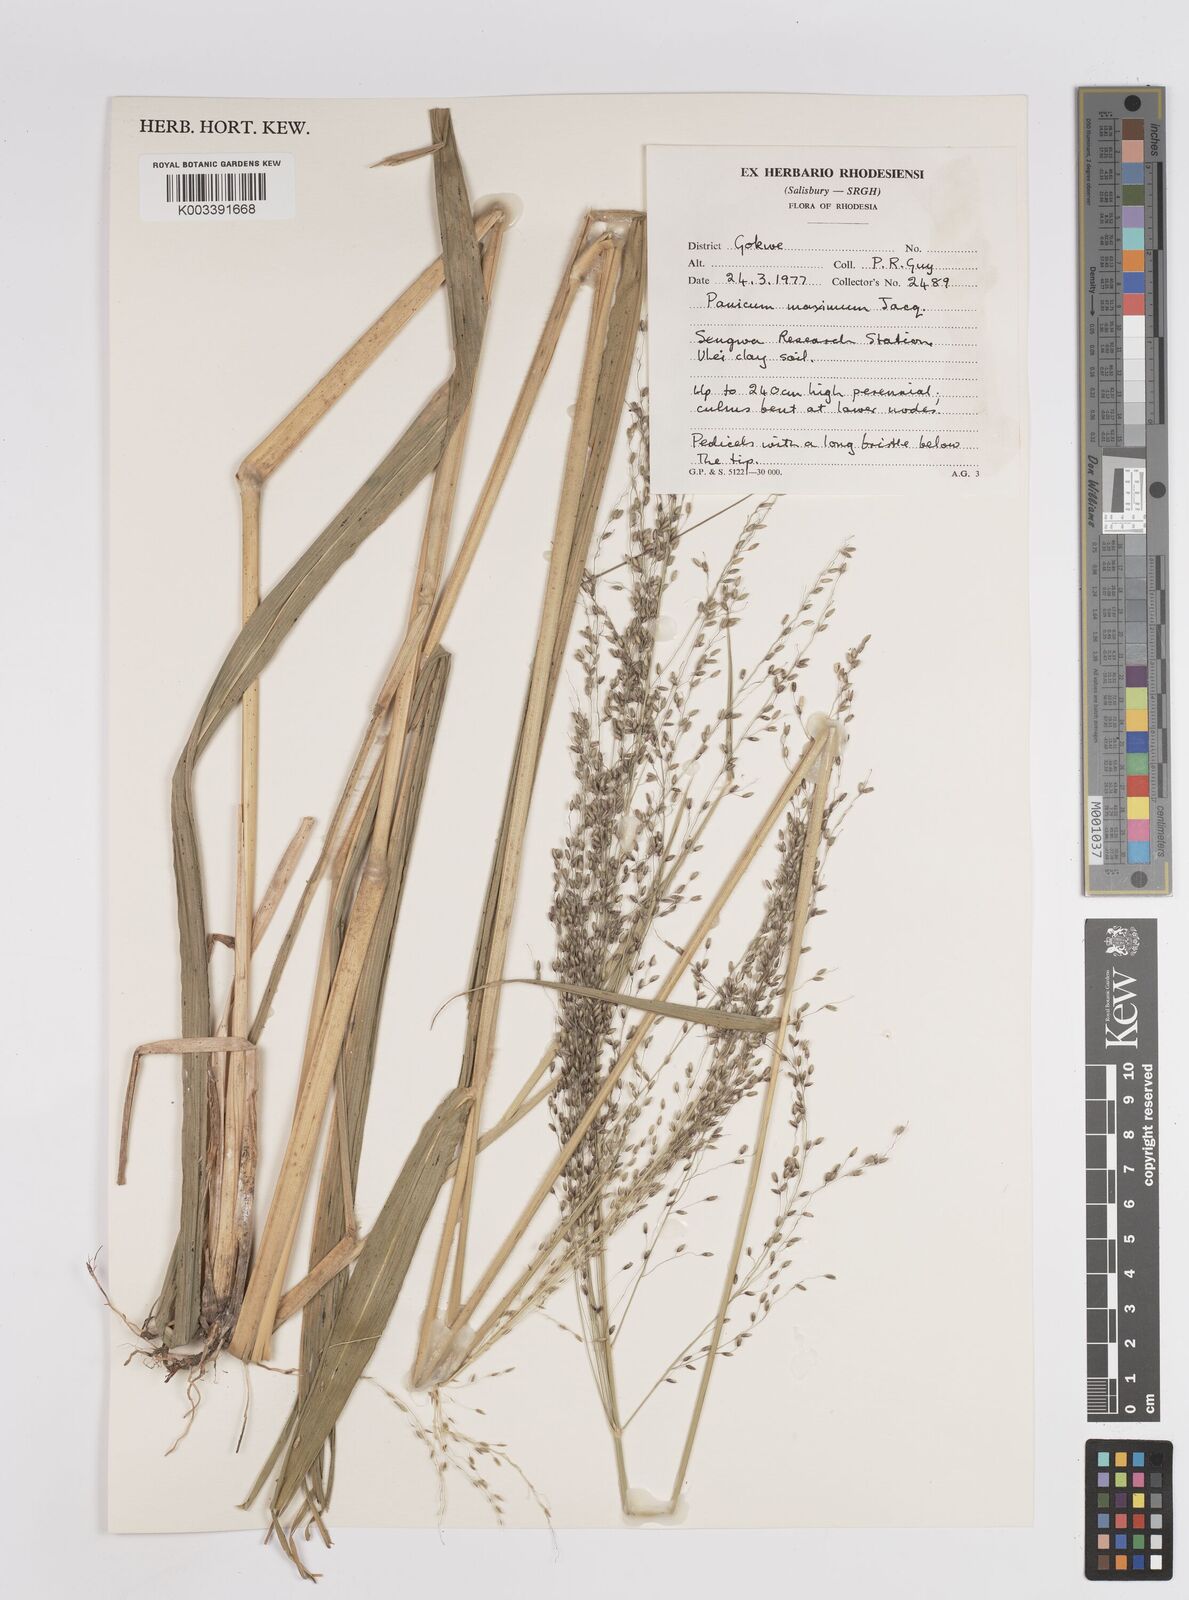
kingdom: Plantae
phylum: Tracheophyta
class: Liliopsida
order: Poales
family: Poaceae
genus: Megathyrsus
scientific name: Megathyrsus maximus
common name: Guineagrass
